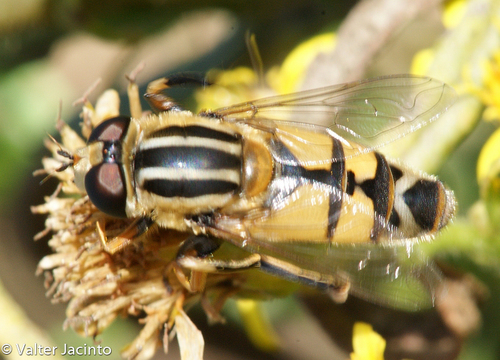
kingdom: Animalia
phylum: Arthropoda
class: Insecta
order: Diptera
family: Syrphidae
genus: Helophilus
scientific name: Helophilus trivittatus
